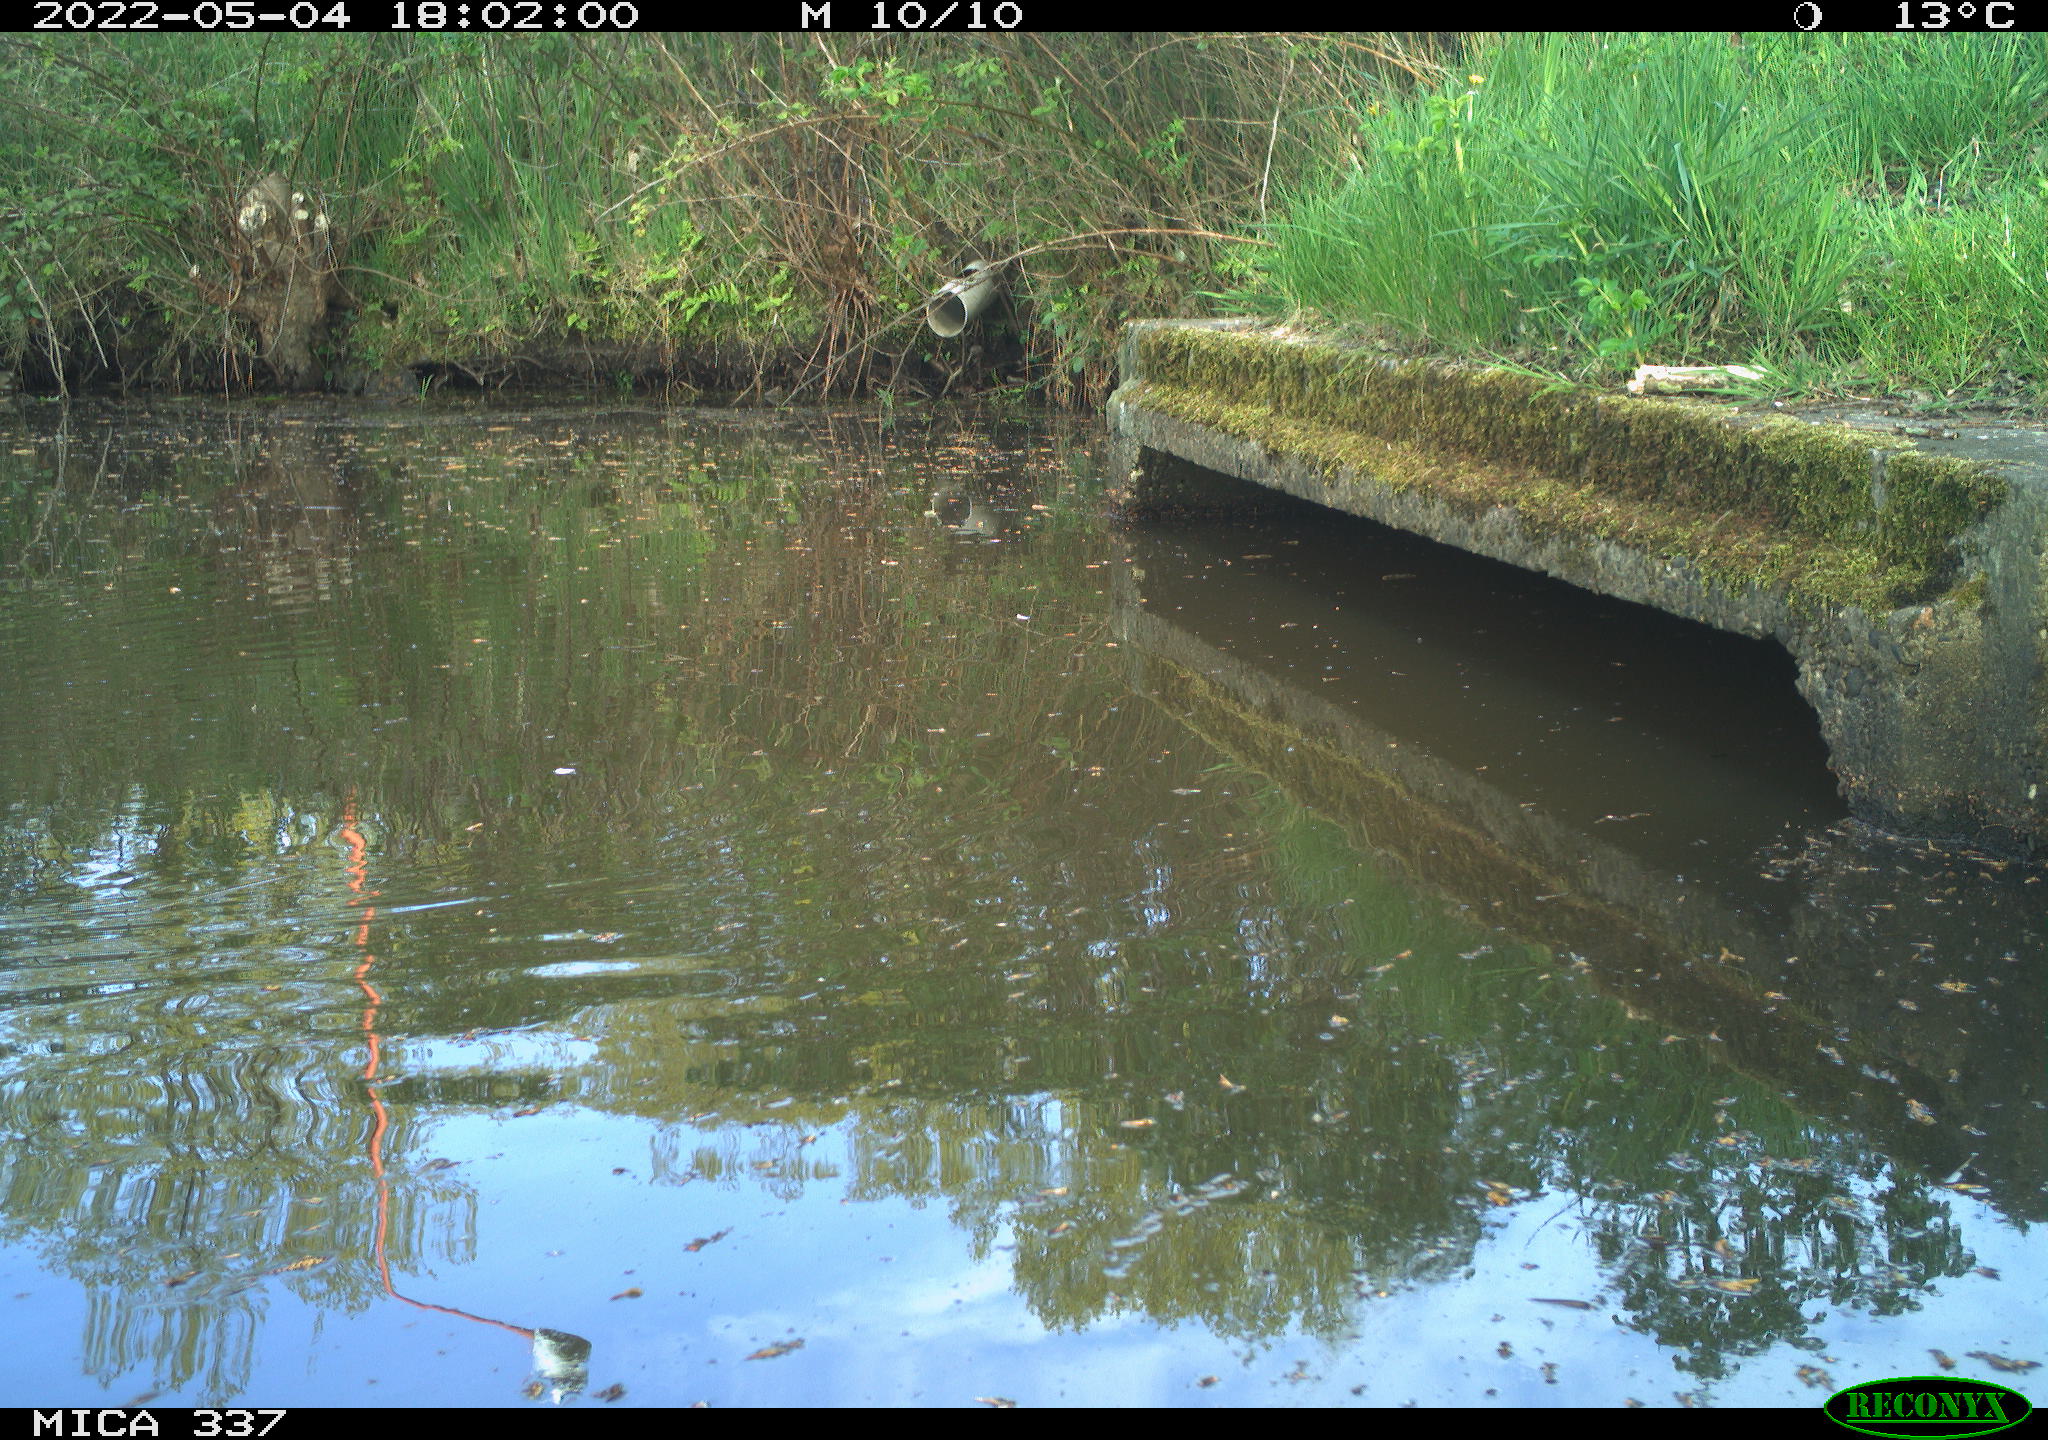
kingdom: Animalia
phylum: Chordata
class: Aves
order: Gruiformes
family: Rallidae
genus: Gallinula
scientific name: Gallinula chloropus
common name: Common moorhen
